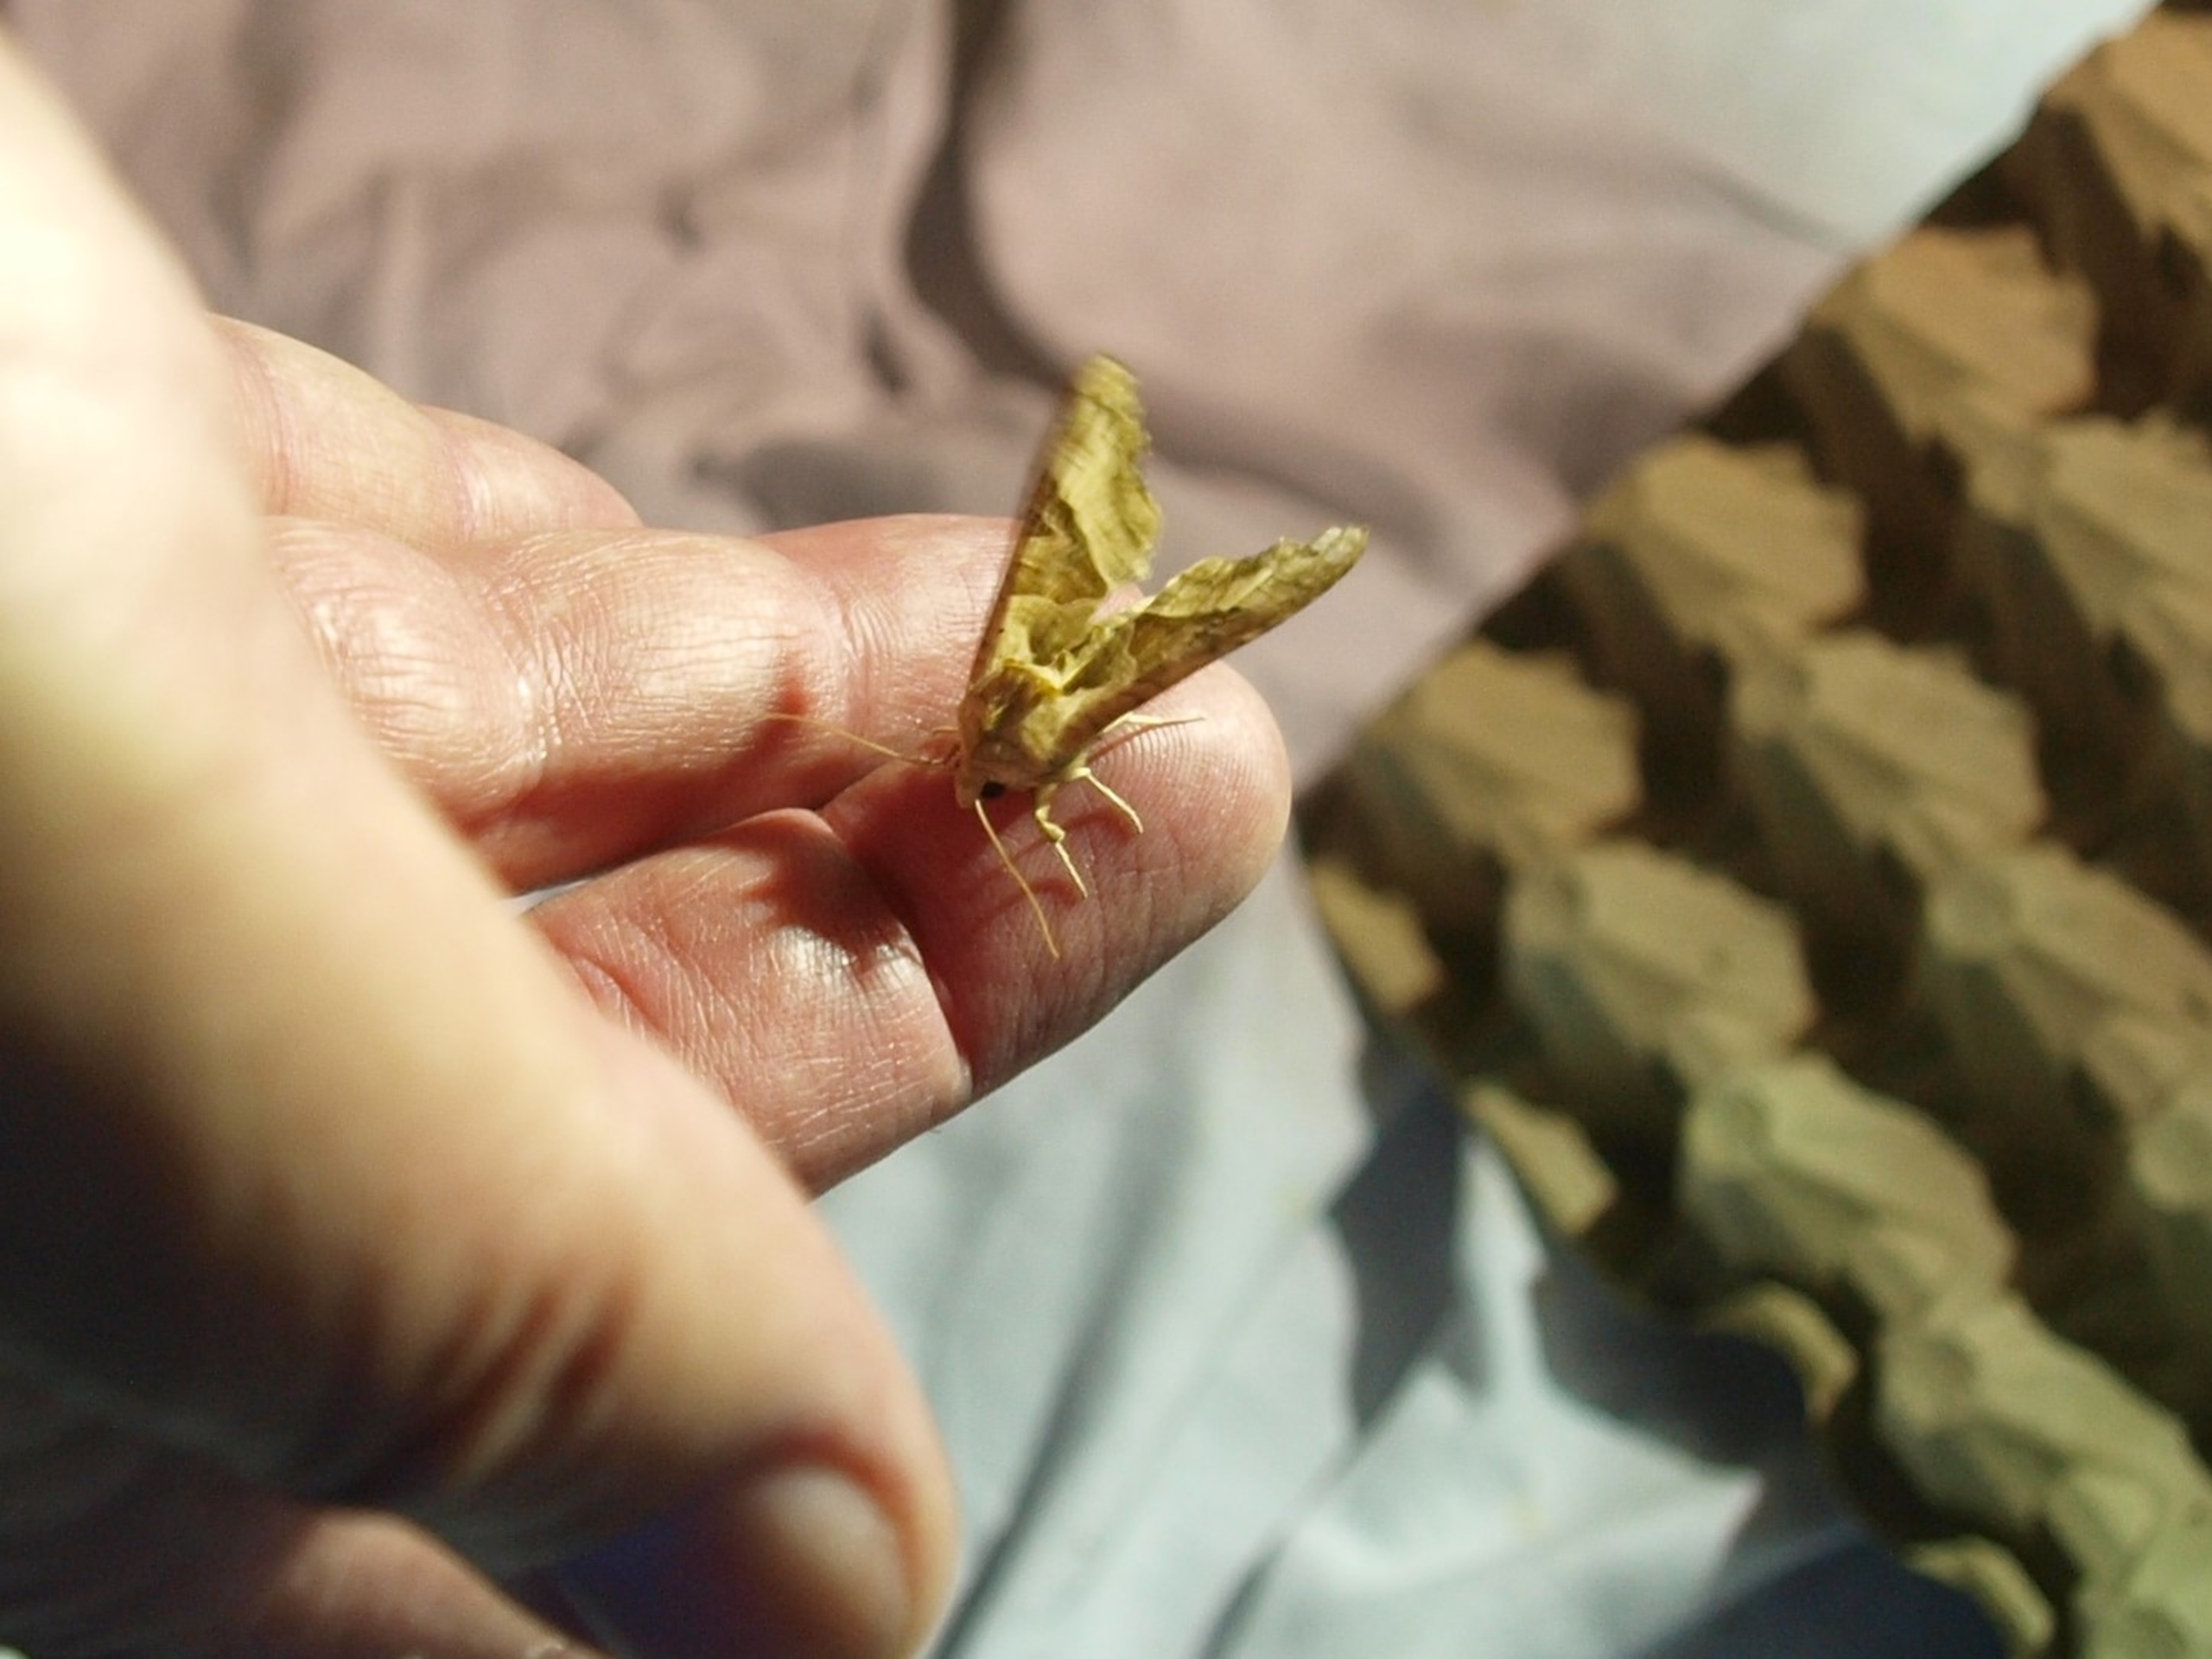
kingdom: Animalia
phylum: Arthropoda
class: Insecta
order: Lepidoptera
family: Noctuidae
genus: Phlogophora
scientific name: Phlogophora meticulosa
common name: Agatugle
